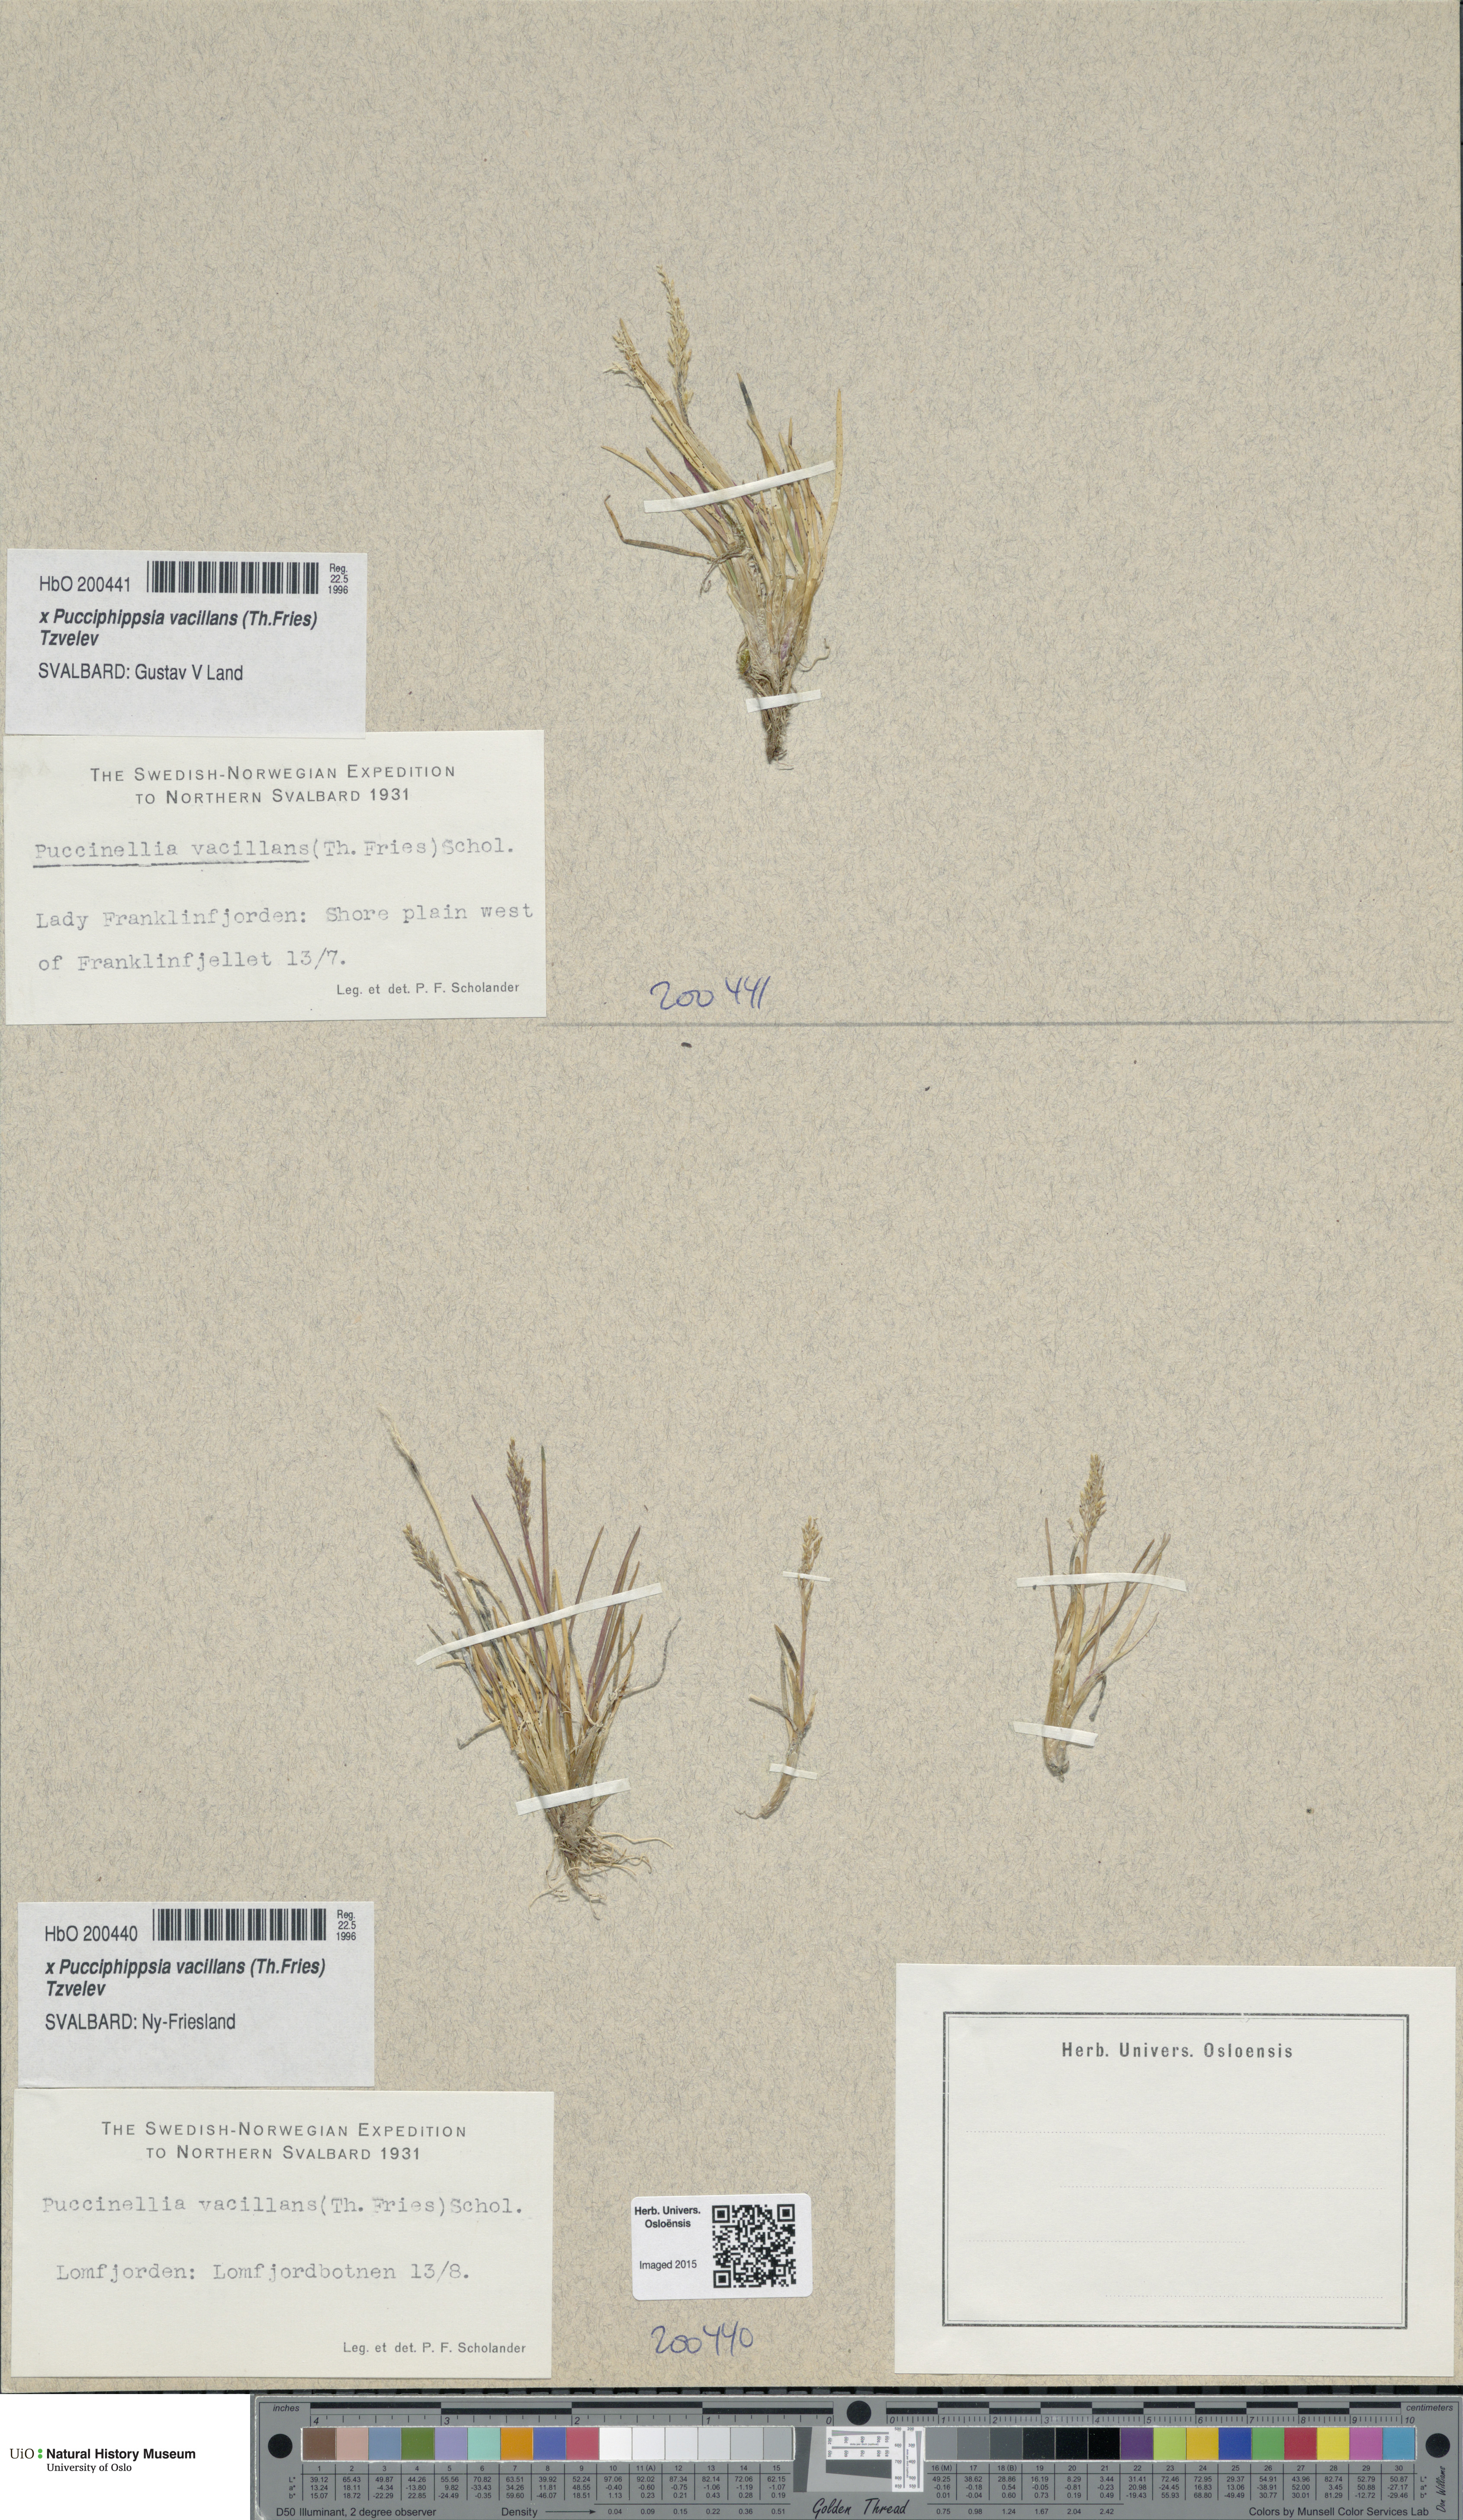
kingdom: Plantae
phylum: Tracheophyta
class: Liliopsida
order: Poales
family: Poaceae
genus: Pucciphippsia
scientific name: Pucciphippsia vacillans
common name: Svalbard grass
